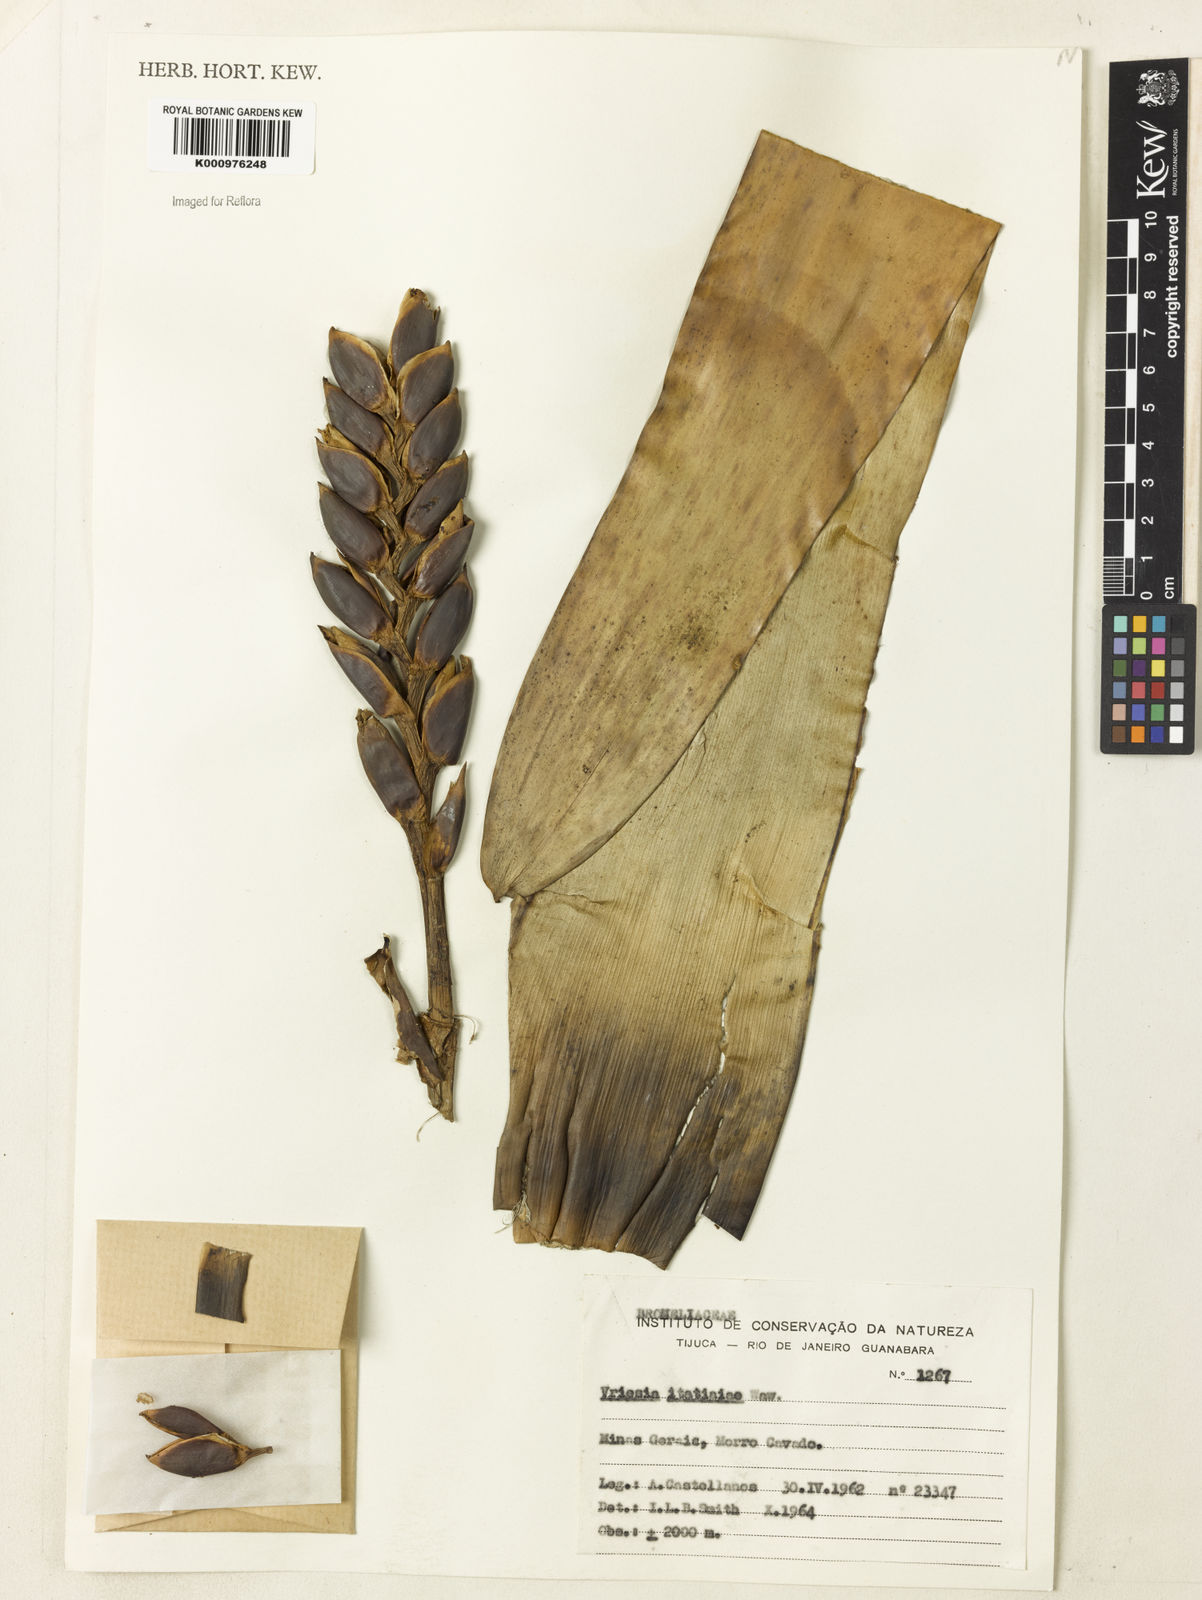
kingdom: Plantae
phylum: Tracheophyta
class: Liliopsida
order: Poales
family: Bromeliaceae
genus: Vriesea
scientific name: Vriesea itatiaiae
